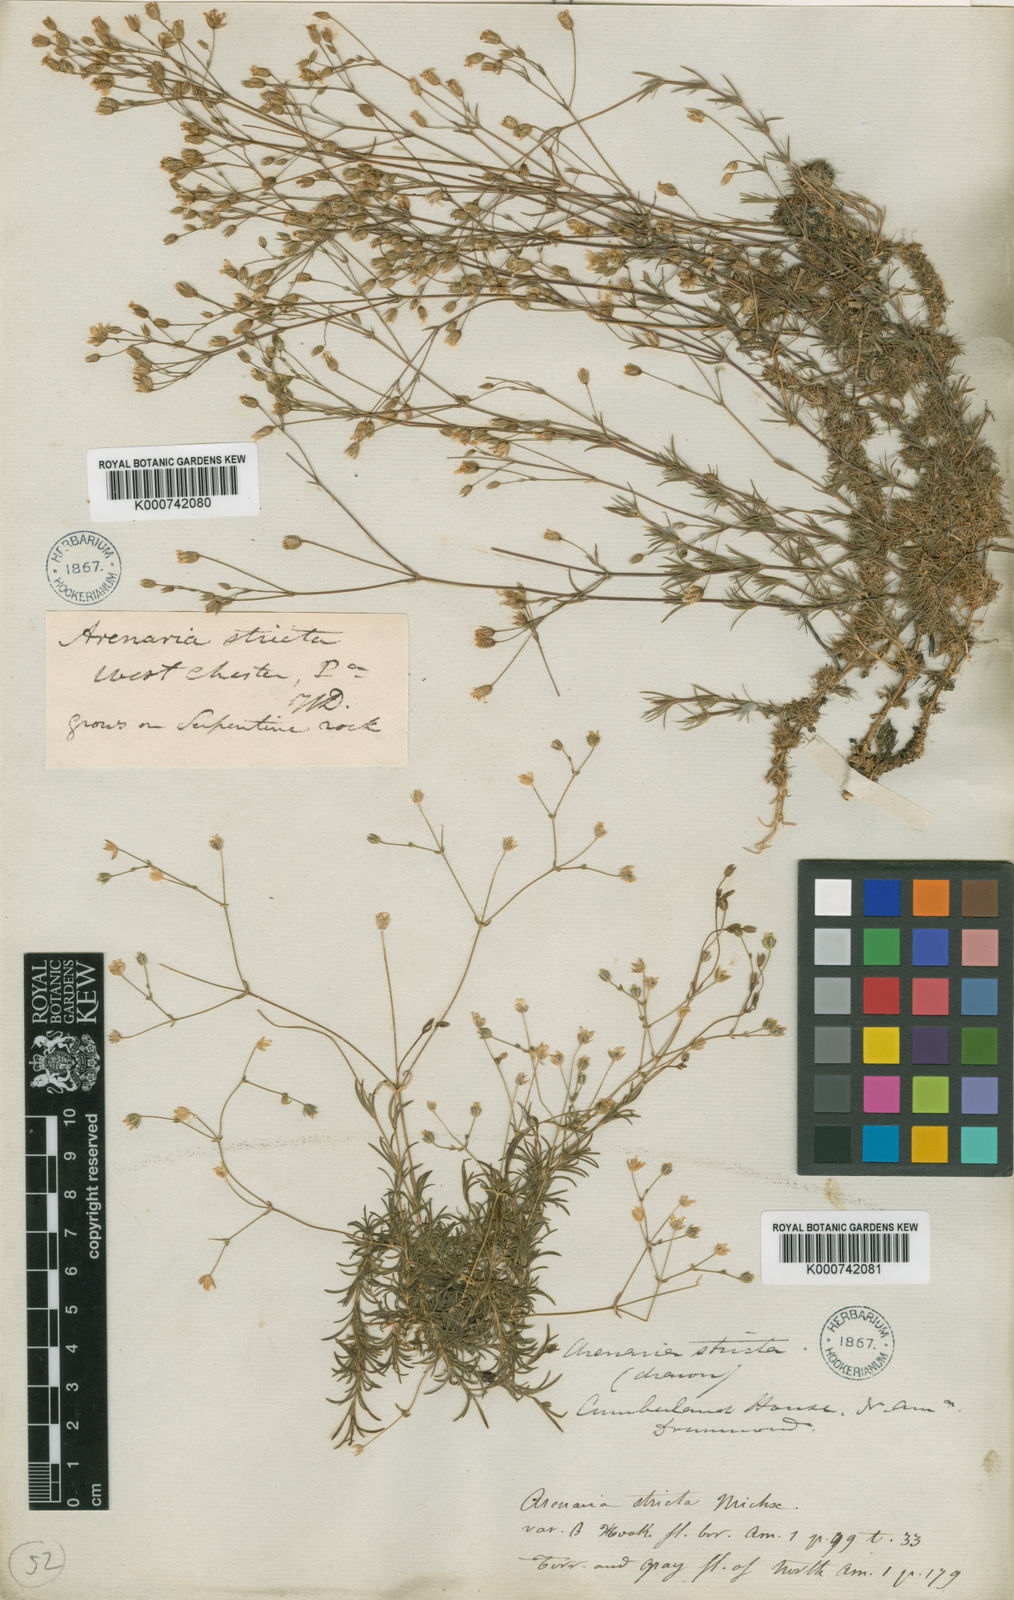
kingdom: Plantae
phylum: Tracheophyta
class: Magnoliopsida
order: Caryophyllales
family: Caryophyllaceae
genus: Mononeuria
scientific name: Mononeuria patula
